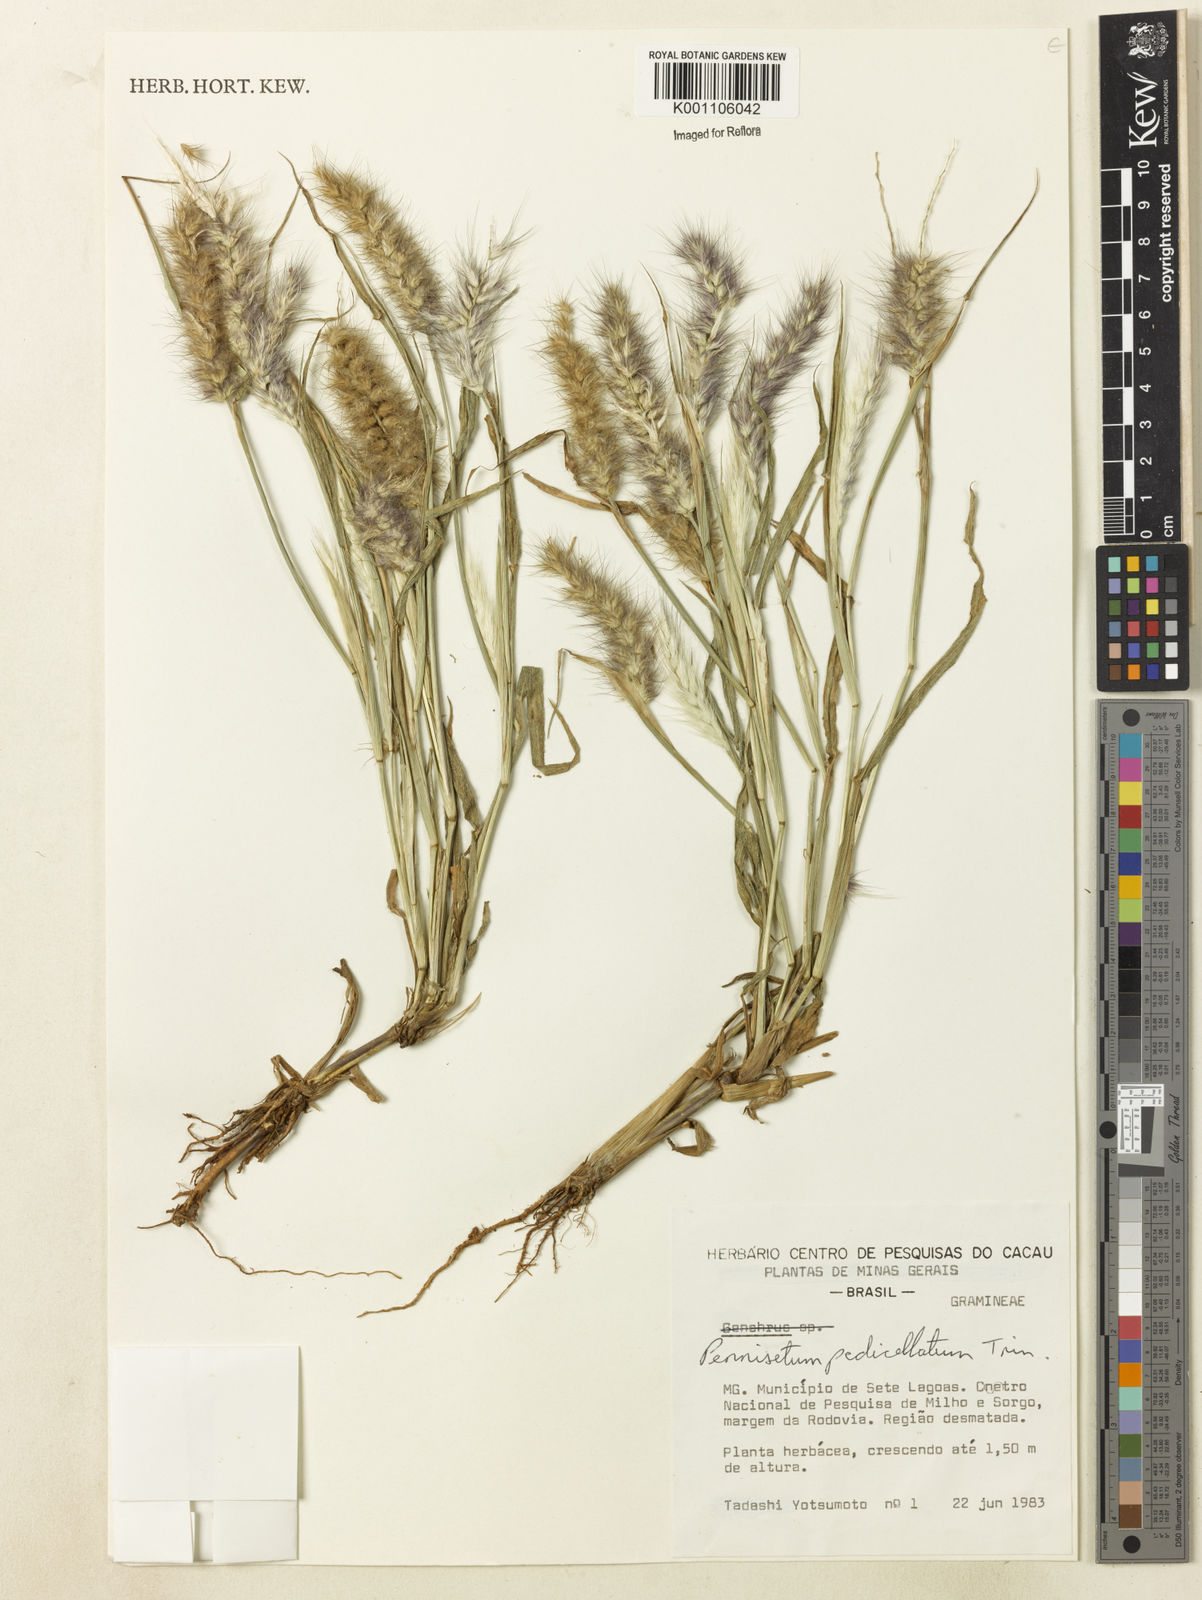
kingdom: Plantae
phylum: Tracheophyta
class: Liliopsida
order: Poales
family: Poaceae
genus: Cenchrus
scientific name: Cenchrus pedicellatus
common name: Hairy fountain grass
